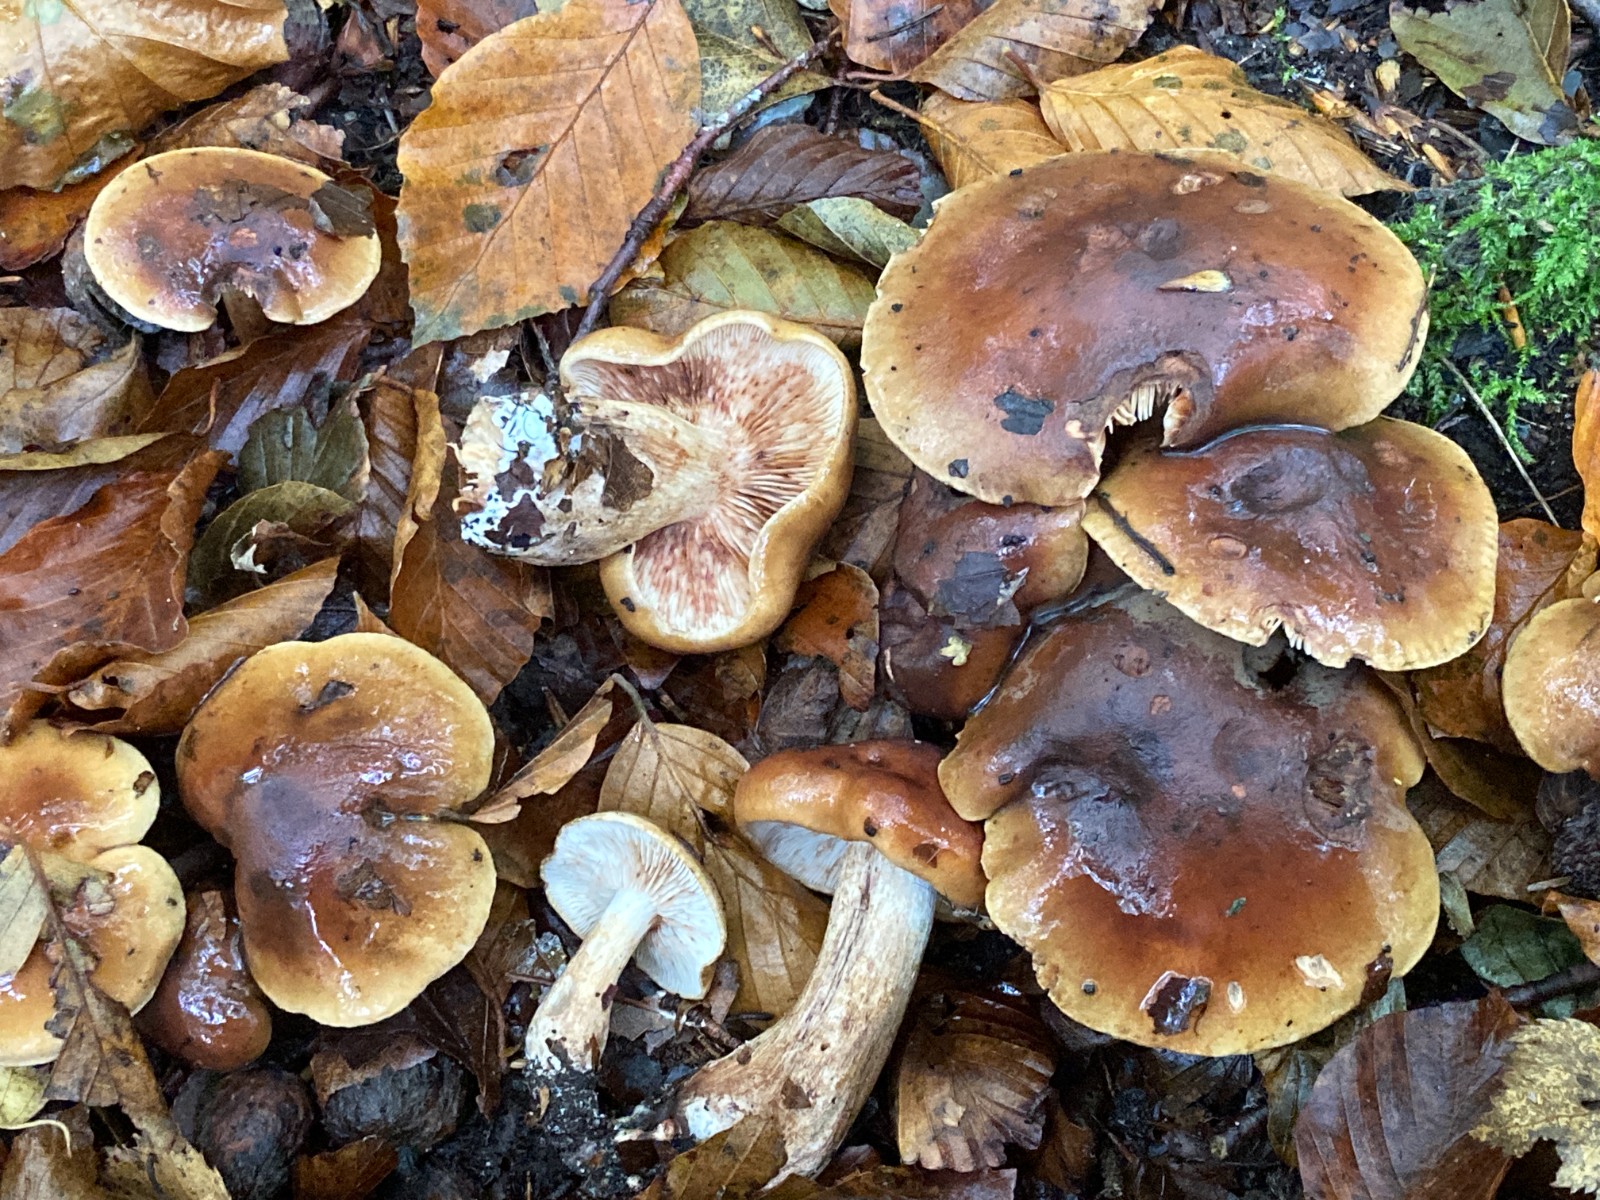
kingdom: Fungi
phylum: Basidiomycota
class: Agaricomycetes
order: Agaricales
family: Tricholomataceae
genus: Tricholoma
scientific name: Tricholoma ustale
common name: sveden ridderhat
